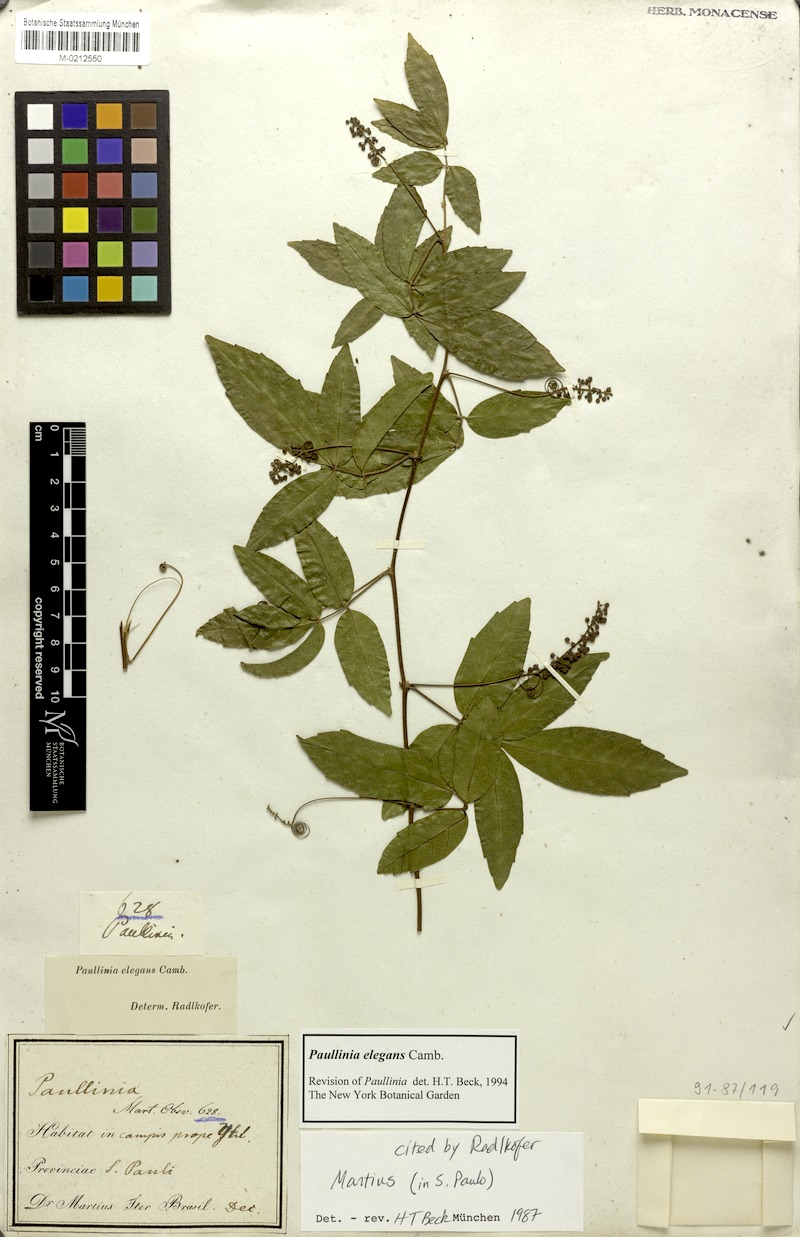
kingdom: Plantae
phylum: Tracheophyta
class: Magnoliopsida
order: Sapindales
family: Sapindaceae
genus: Paullinia
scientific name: Paullinia elegans
